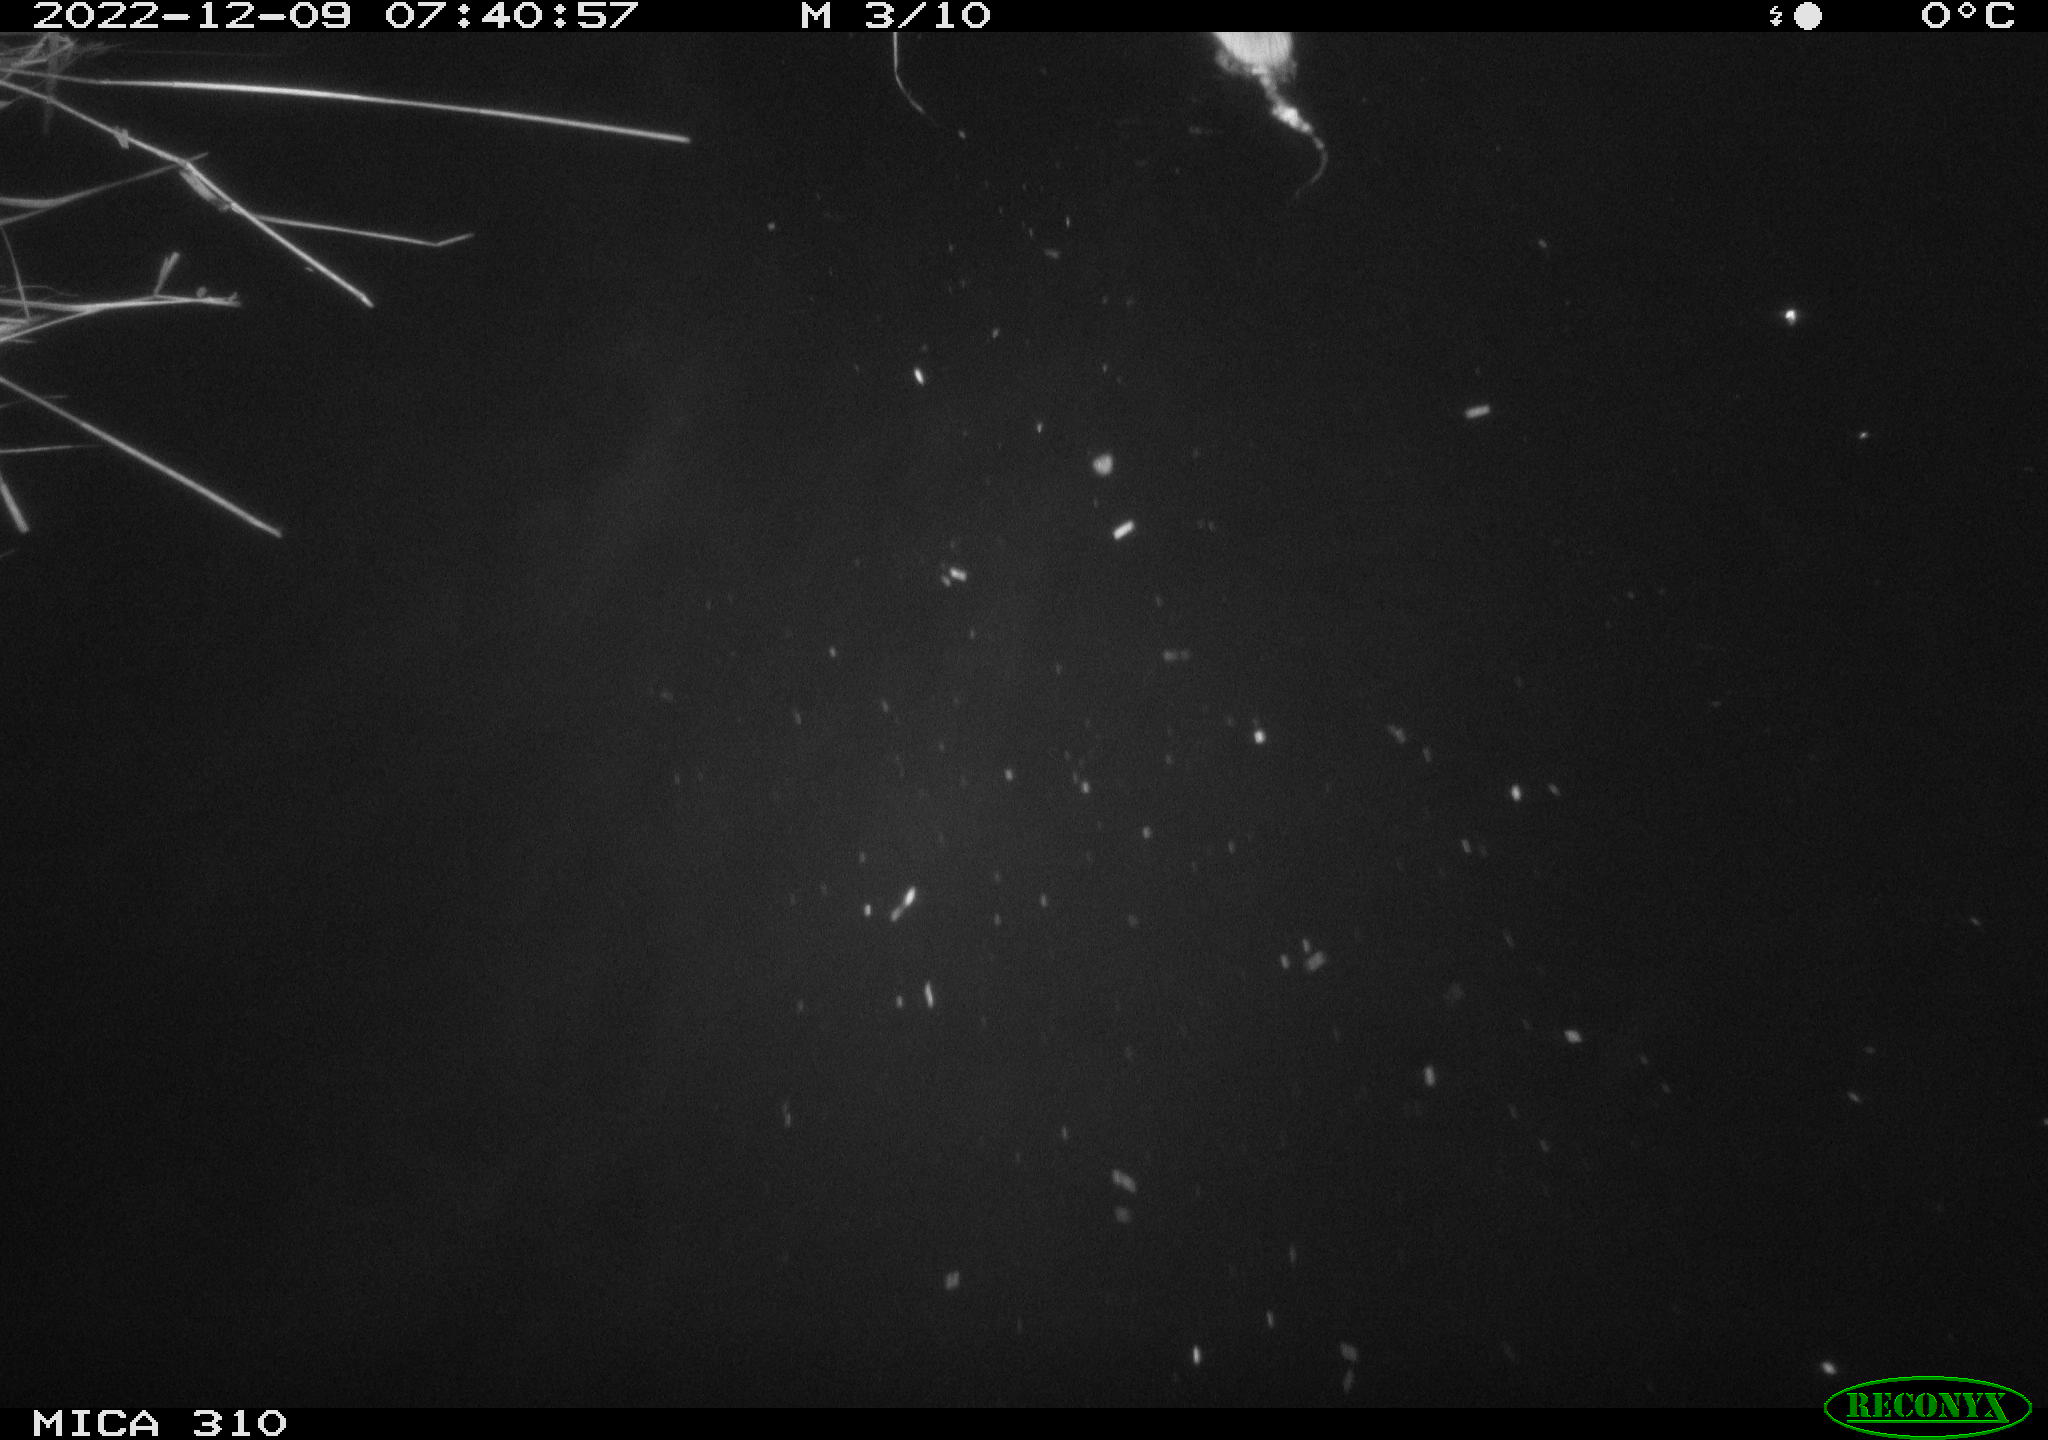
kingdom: Animalia
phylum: Chordata
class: Mammalia
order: Rodentia
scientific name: Rodentia
